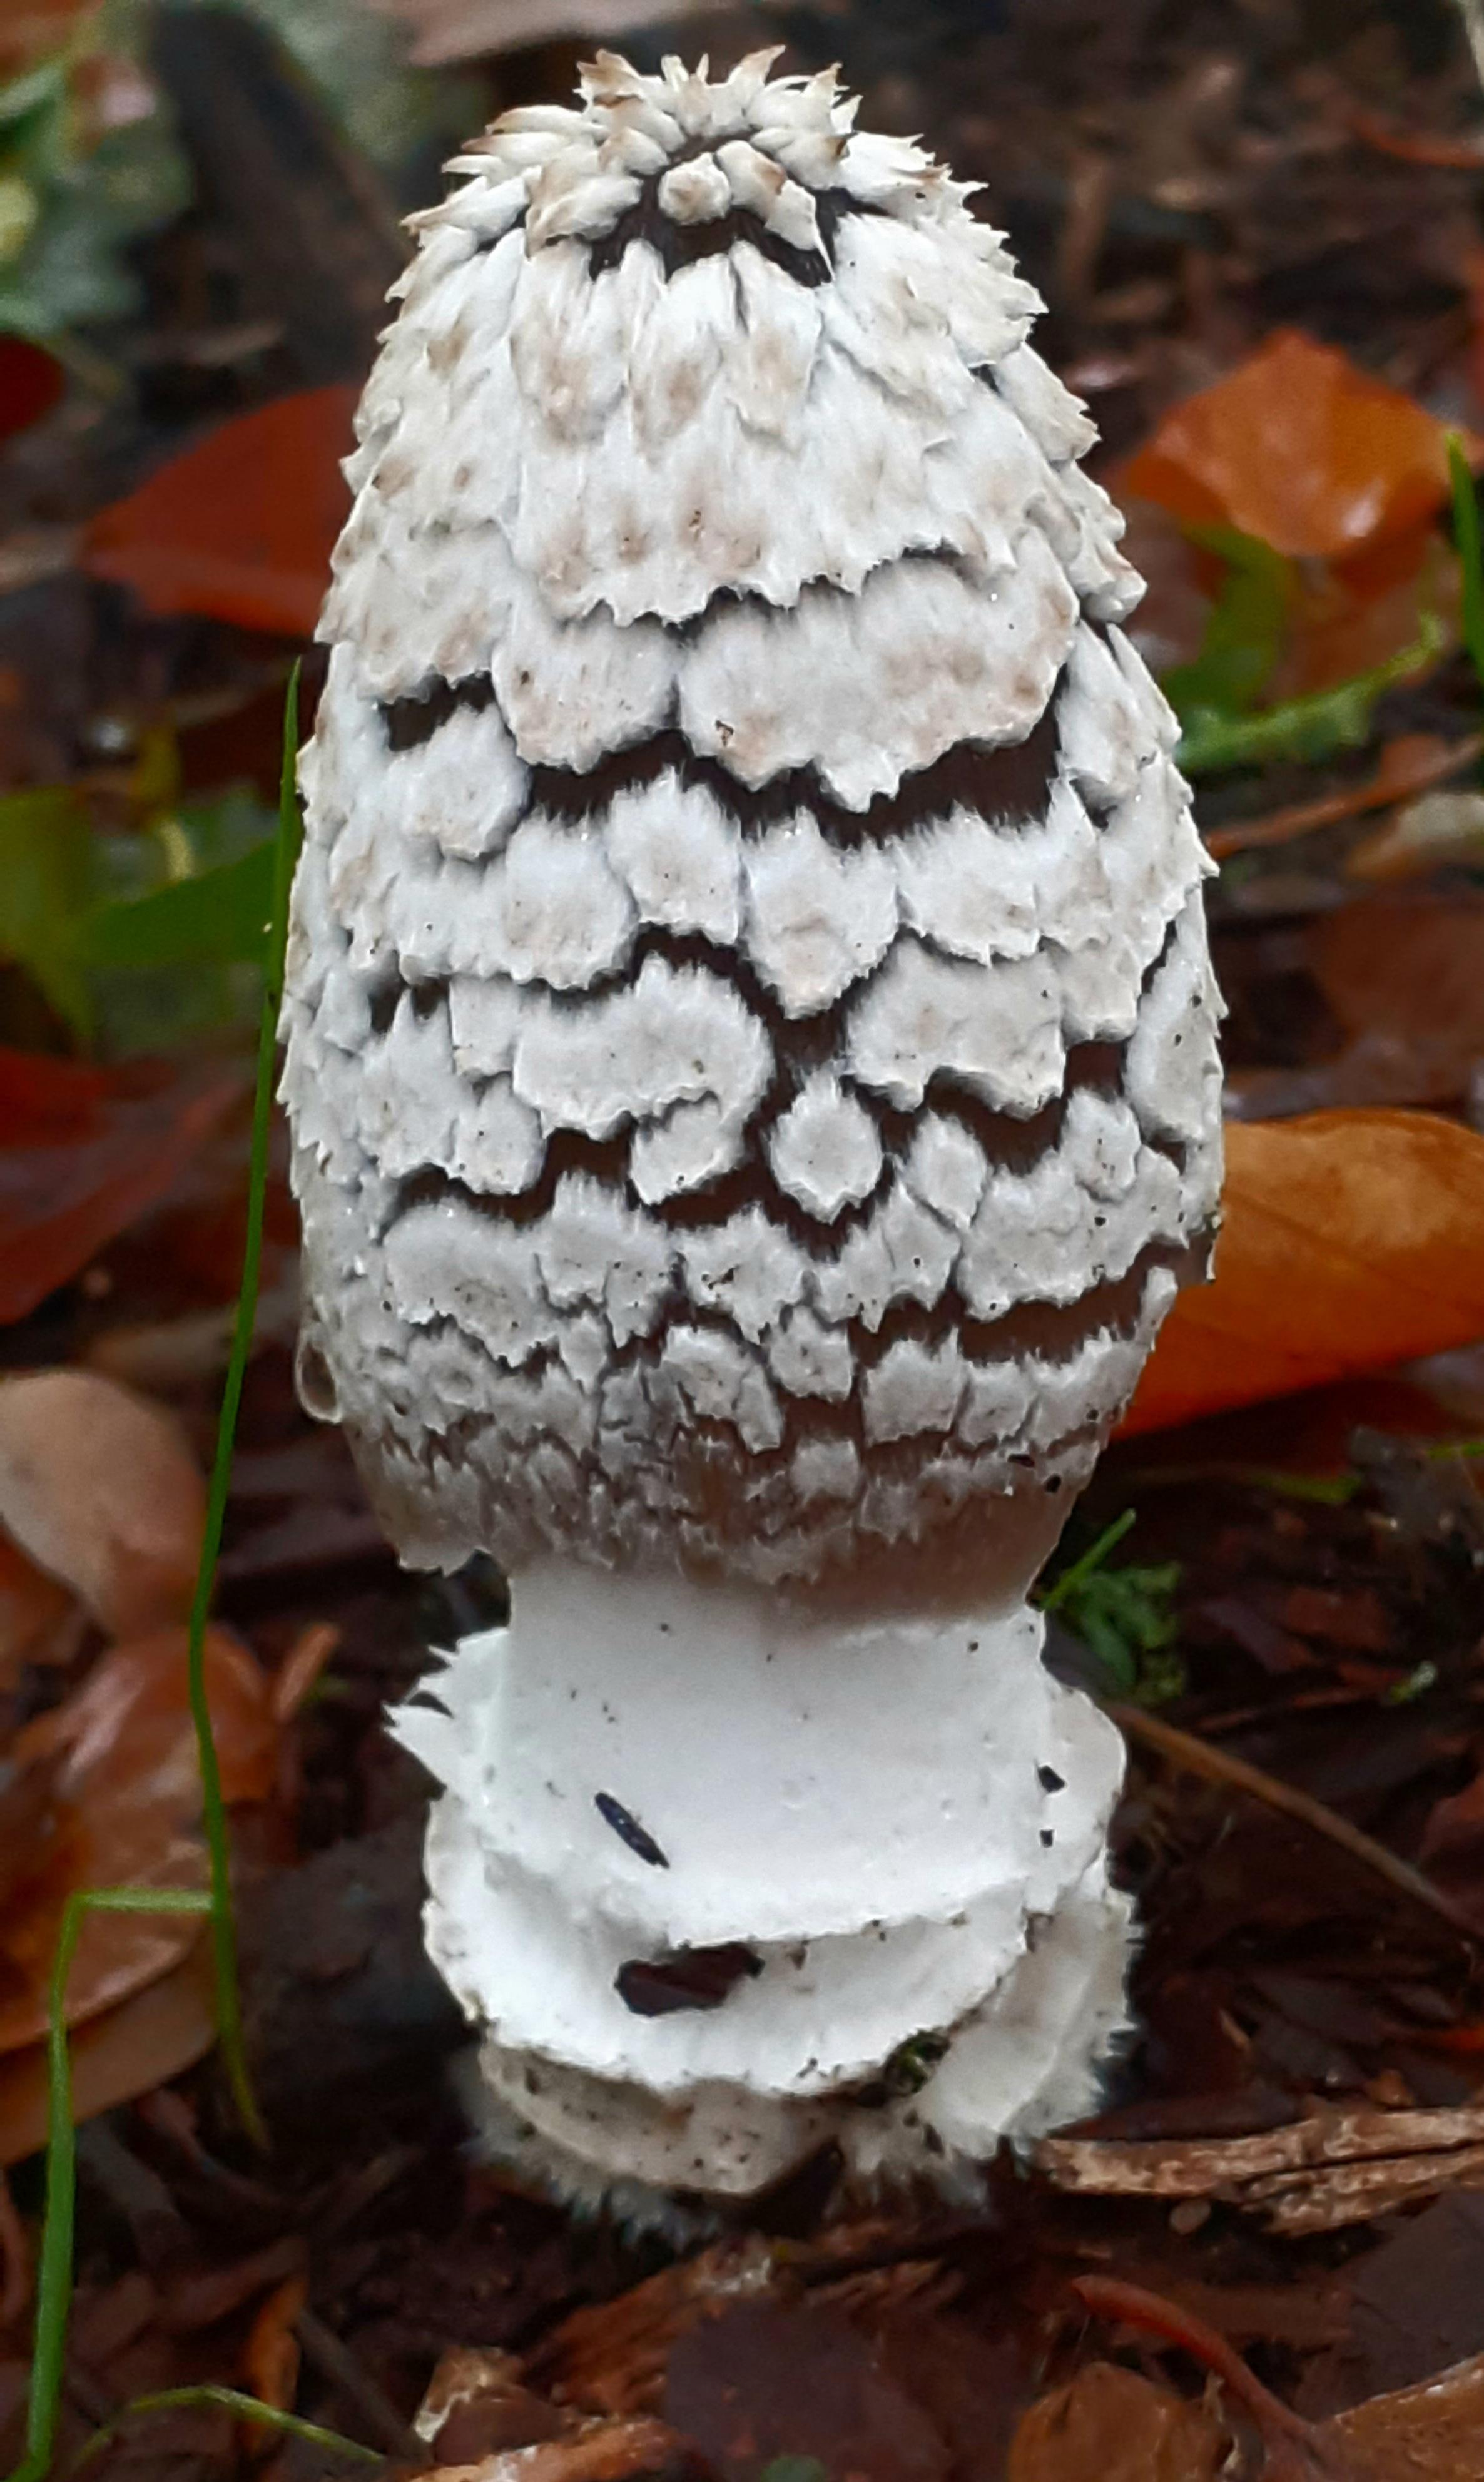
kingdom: Fungi
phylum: Basidiomycota
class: Agaricomycetes
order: Agaricales
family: Psathyrellaceae
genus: Coprinopsis
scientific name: Coprinopsis picacea
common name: skade-blækhat
